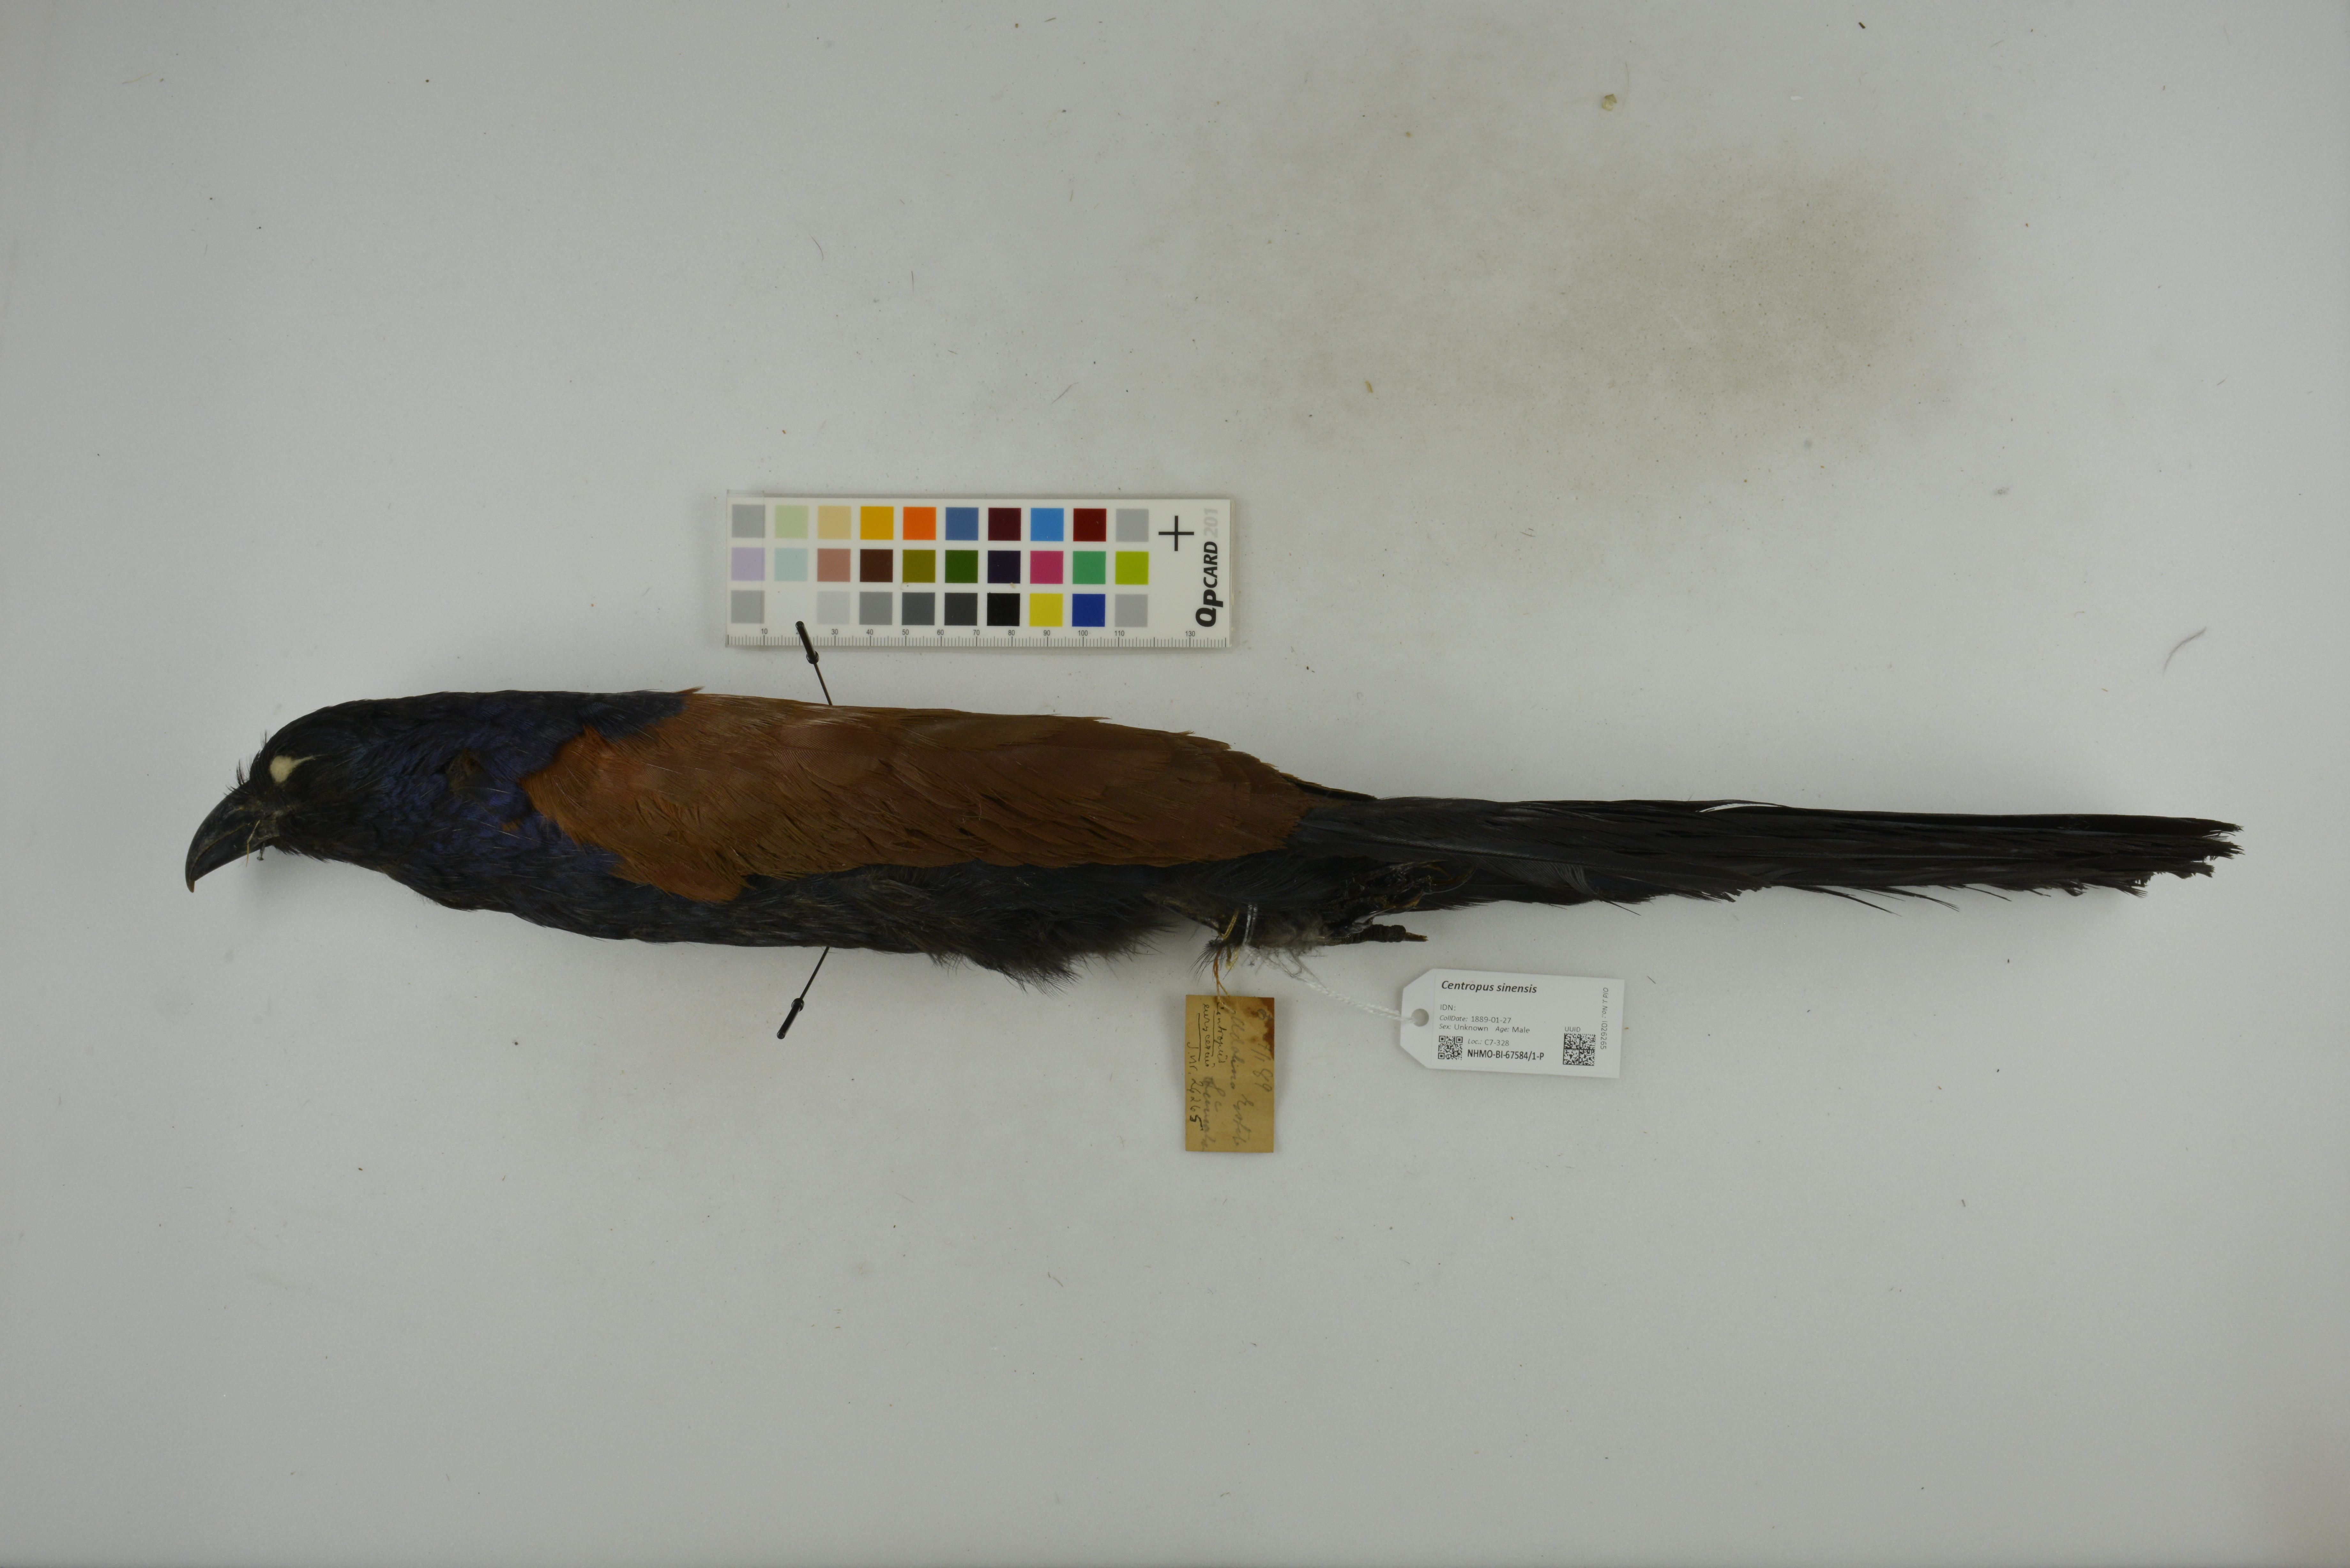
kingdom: Animalia
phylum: Chordata
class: Aves
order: Cuculiformes
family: Cuculidae
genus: Centropus
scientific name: Centropus sinensis
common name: Greater coucal
